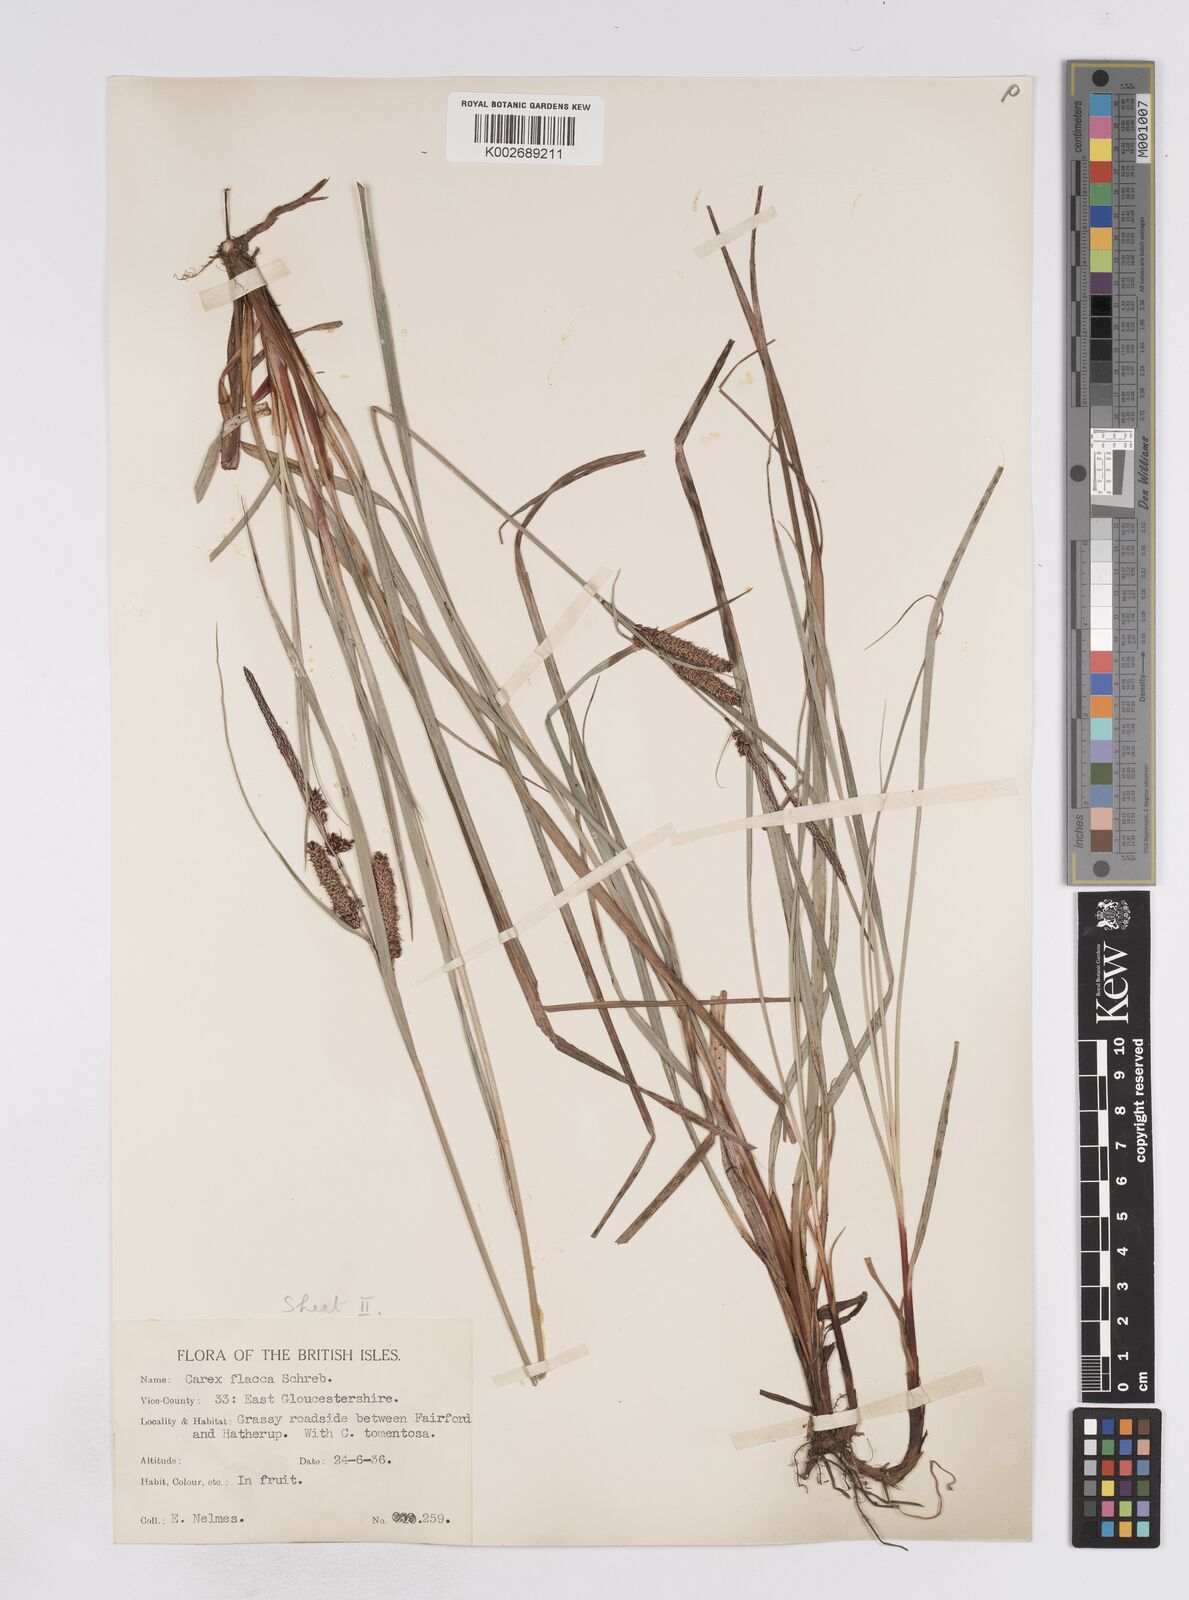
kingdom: Plantae
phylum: Tracheophyta
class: Liliopsida
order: Poales
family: Cyperaceae
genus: Carex
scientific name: Carex flacca
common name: Glaucous sedge
